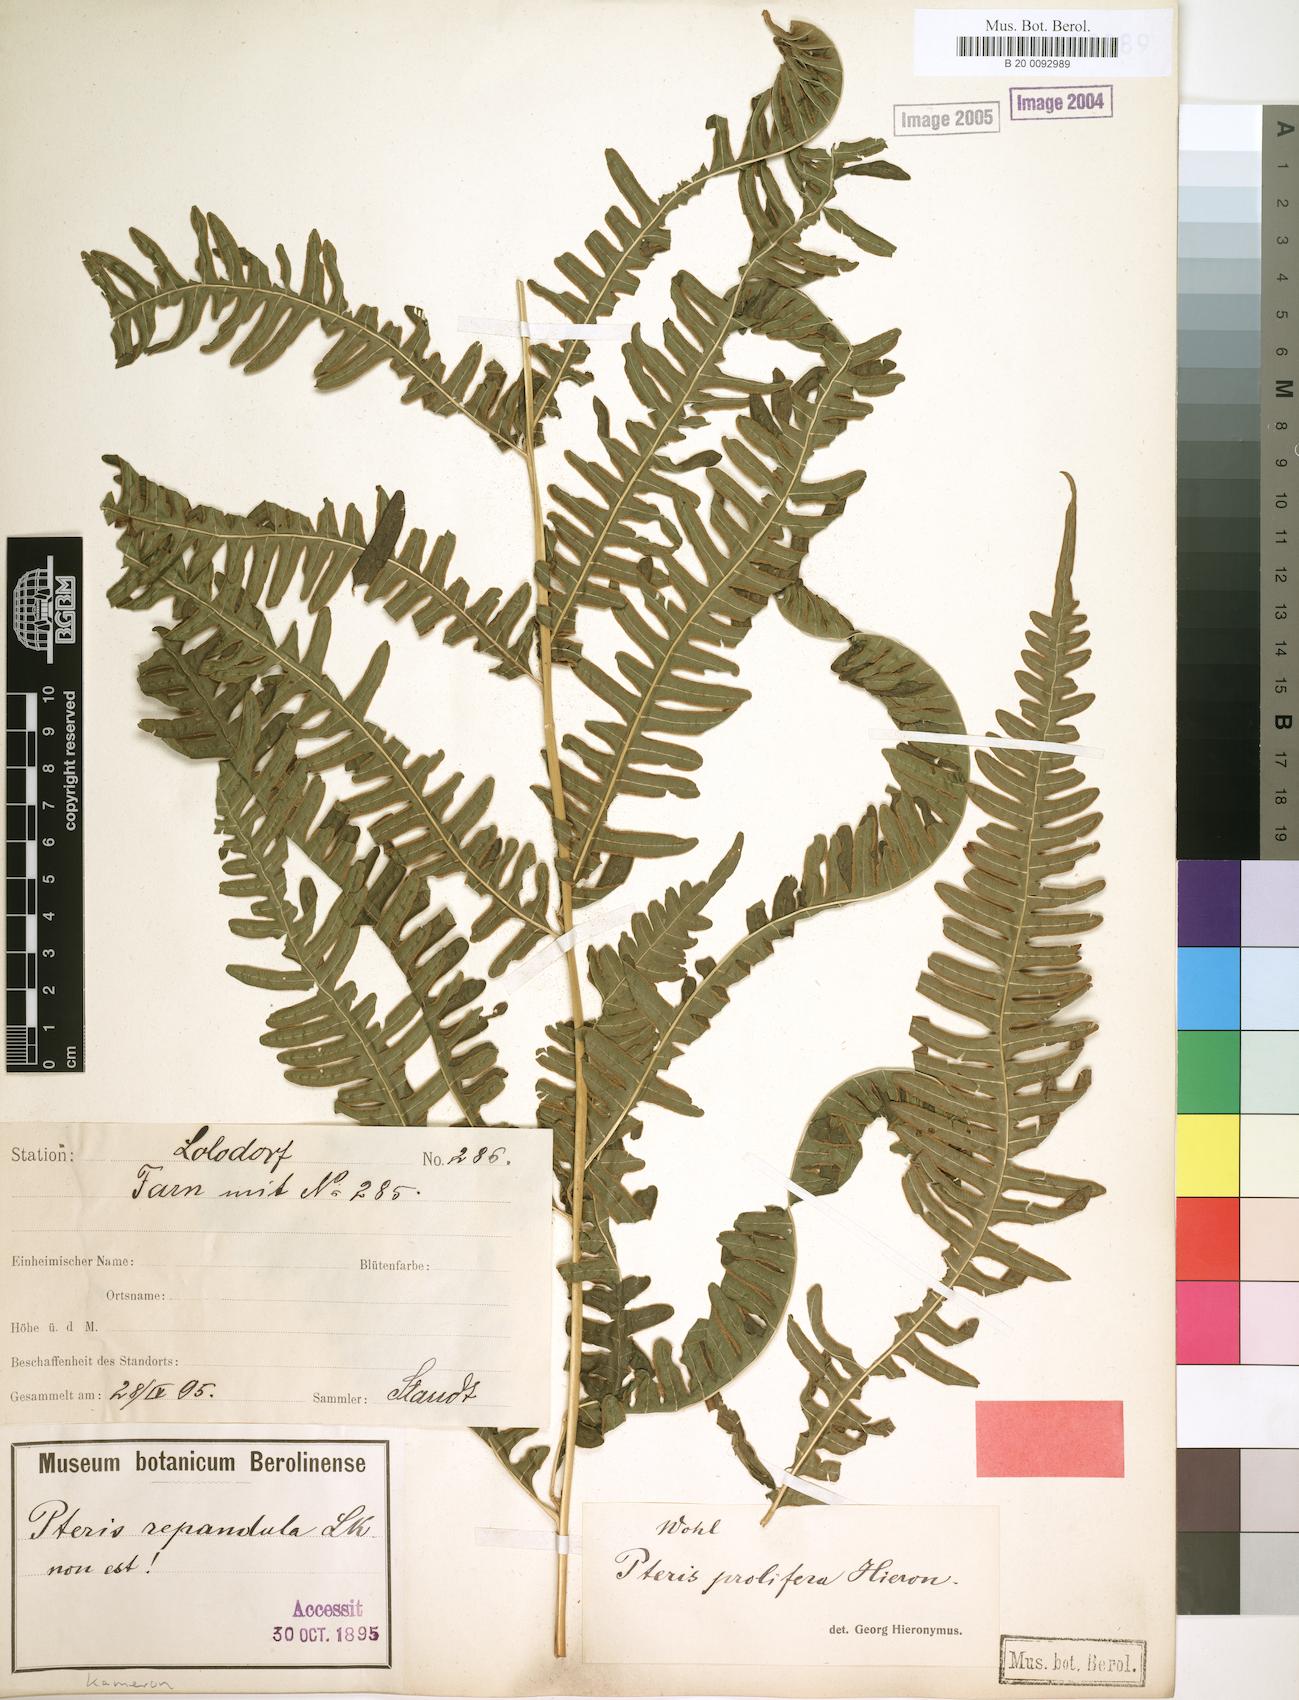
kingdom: Plantae
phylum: Tracheophyta
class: Polypodiopsida
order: Polypodiales
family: Pteridaceae
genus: Pteris
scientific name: Pteris preussii
